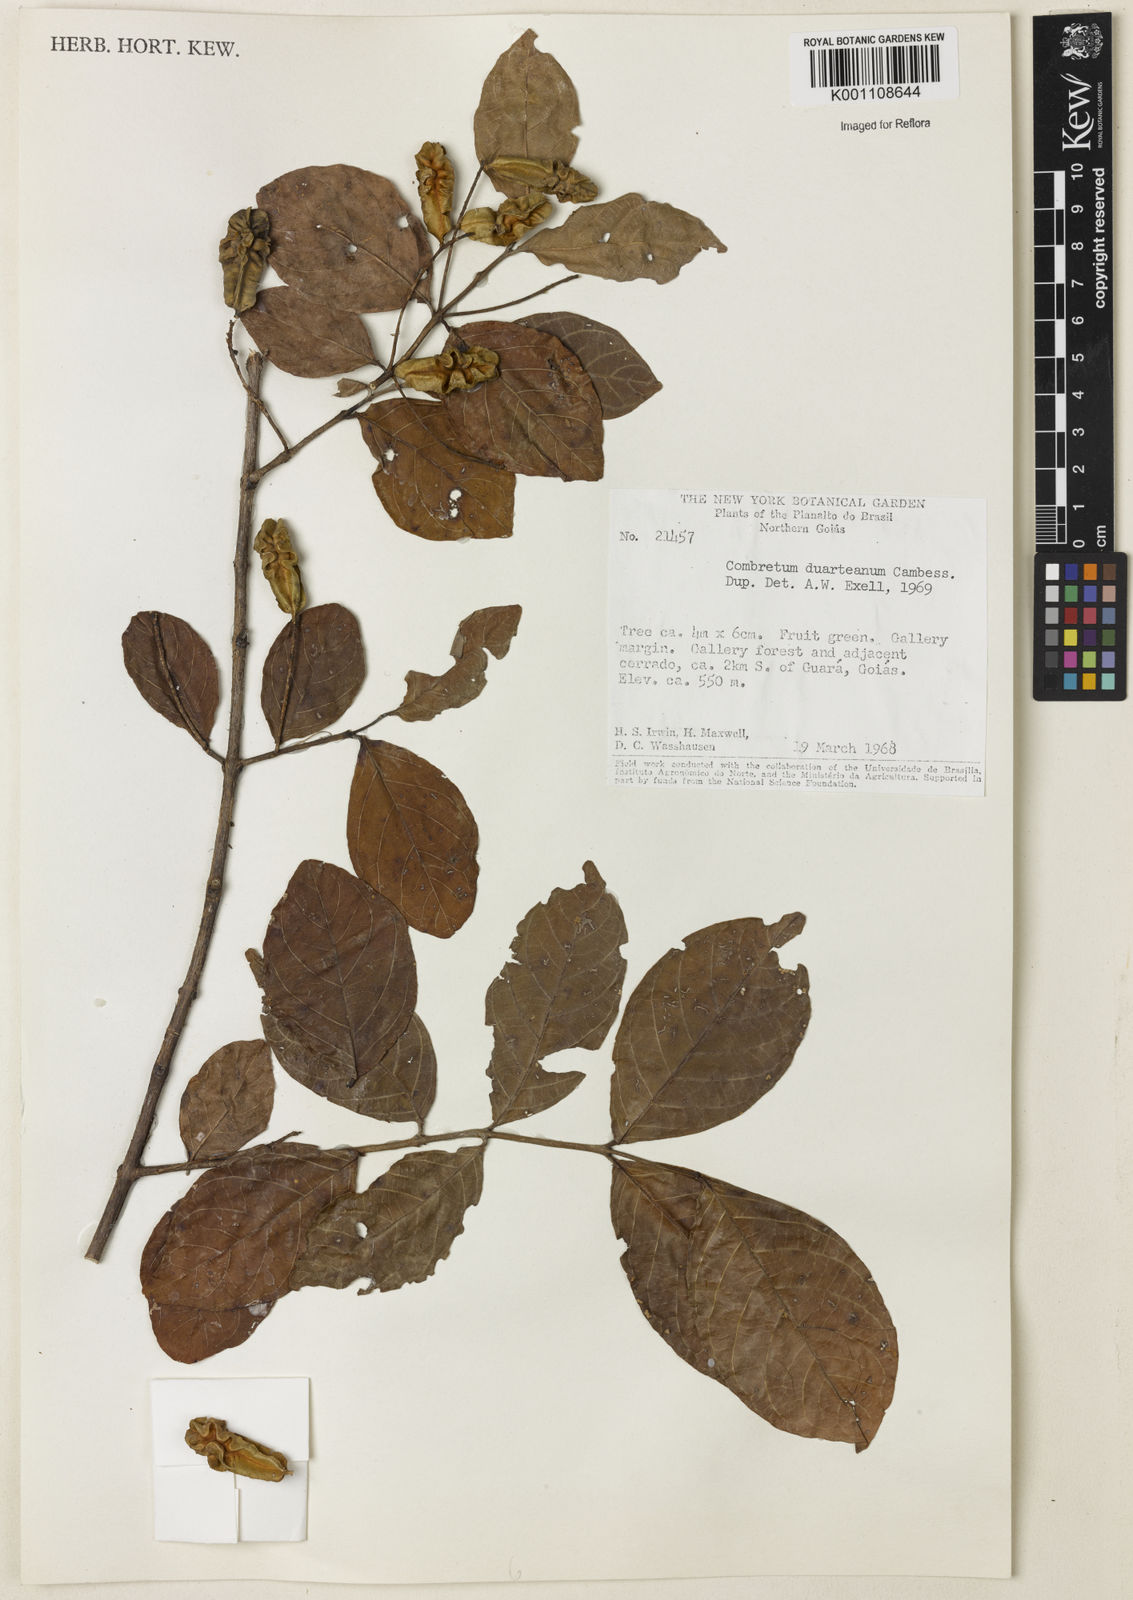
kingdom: Plantae
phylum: Tracheophyta
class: Magnoliopsida
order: Myrtales
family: Combretaceae
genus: Combretum
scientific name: Combretum duarteanum
